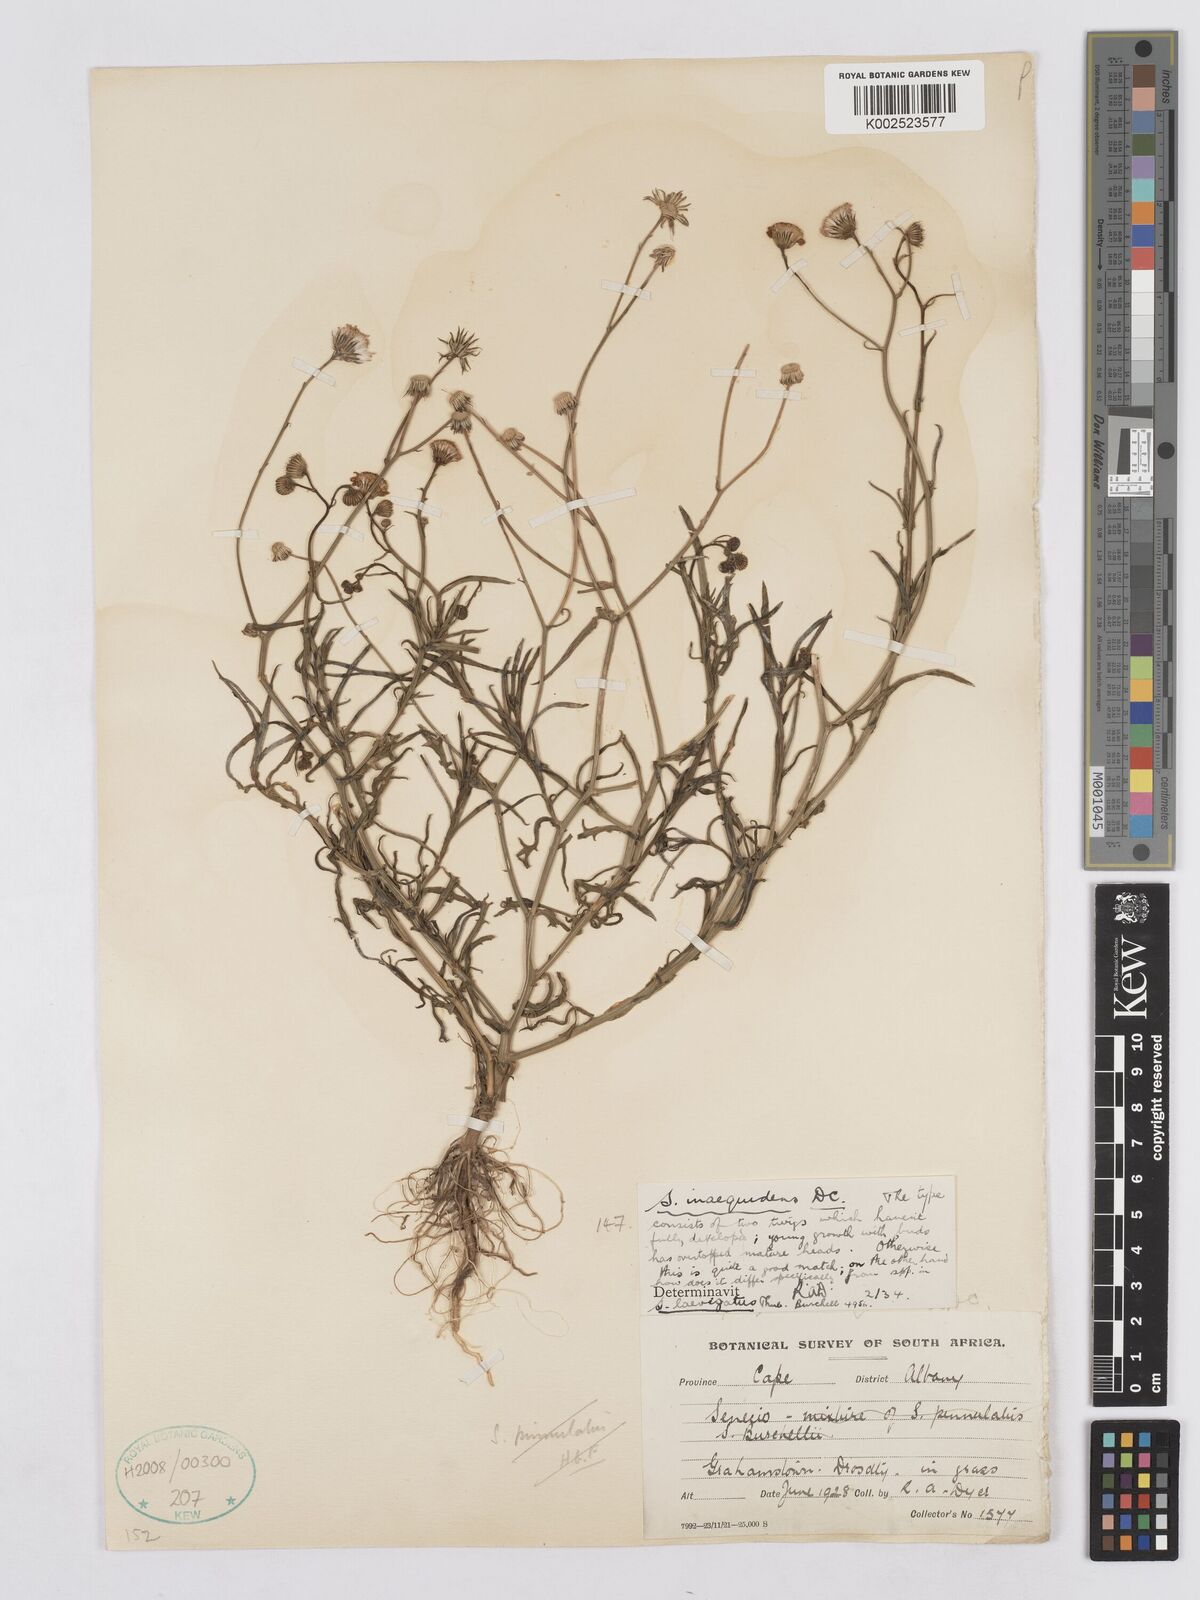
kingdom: Plantae
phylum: Tracheophyta
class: Magnoliopsida
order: Asterales
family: Asteraceae
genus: Senecio
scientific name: Senecio inaequidens
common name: Narrow-leaved ragwort
